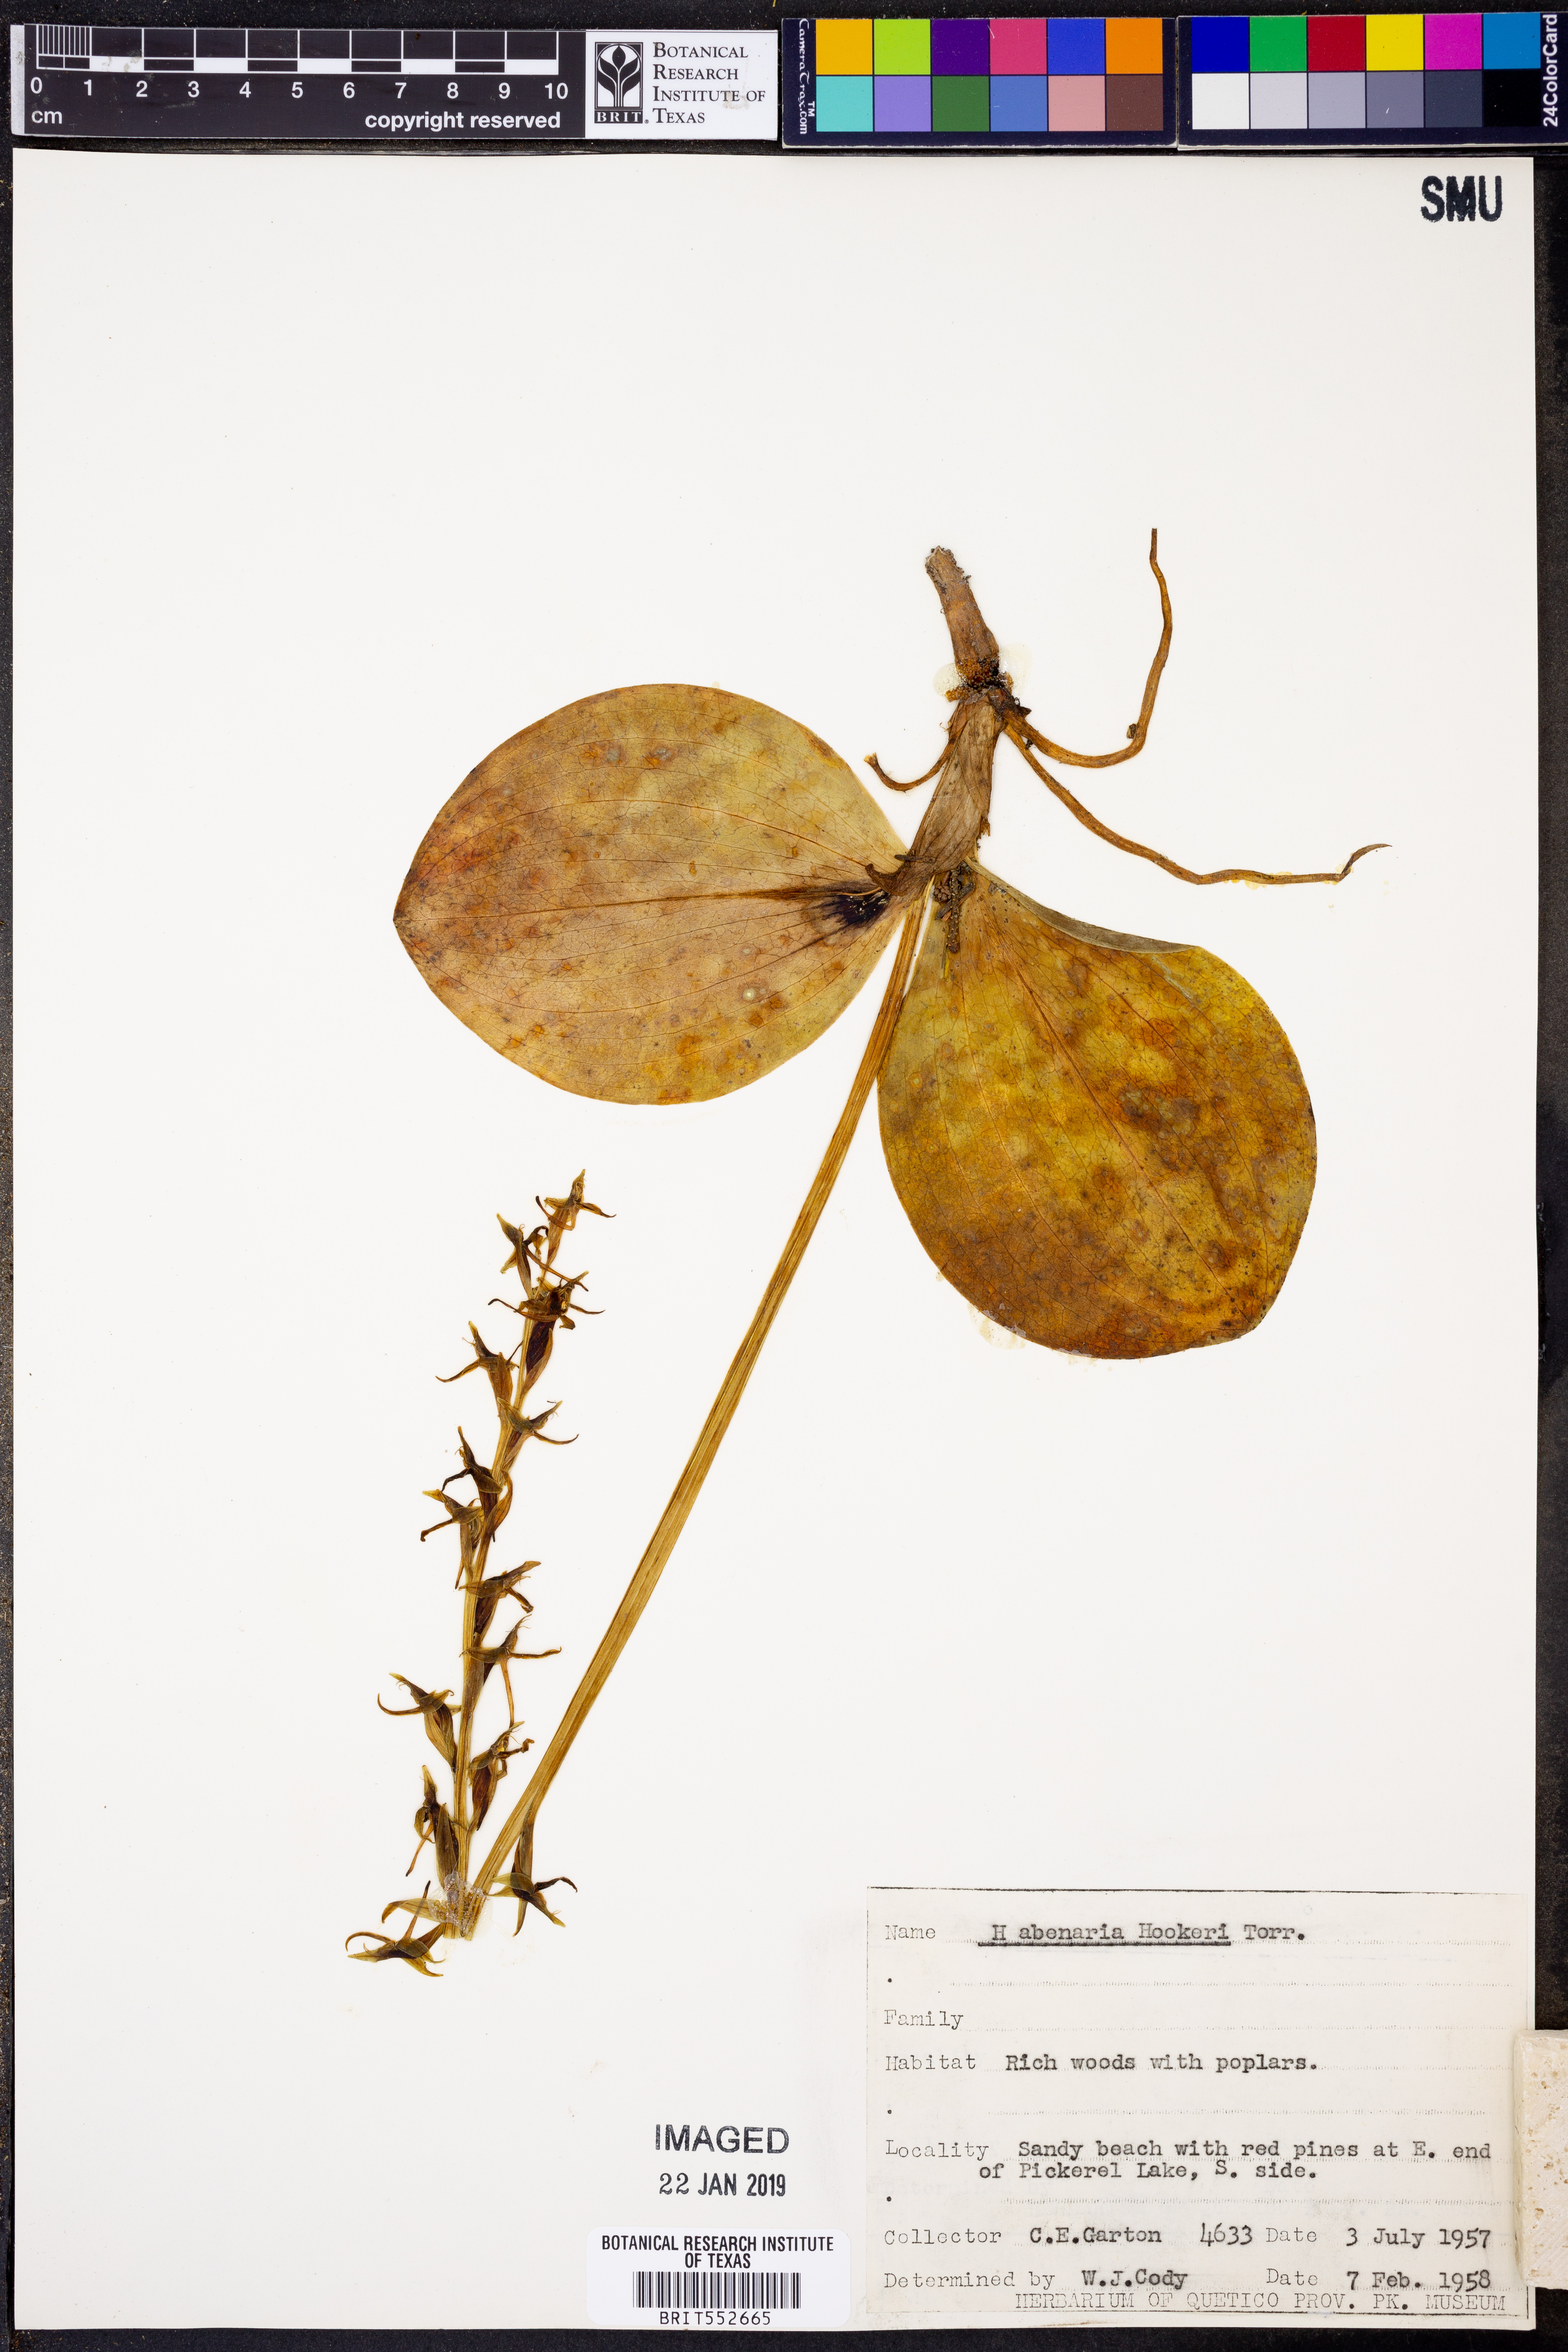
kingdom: Plantae
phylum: Tracheophyta
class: Liliopsida
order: Asparagales
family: Orchidaceae
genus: Platanthera
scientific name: Platanthera hookeri
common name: Hooker's orchid
